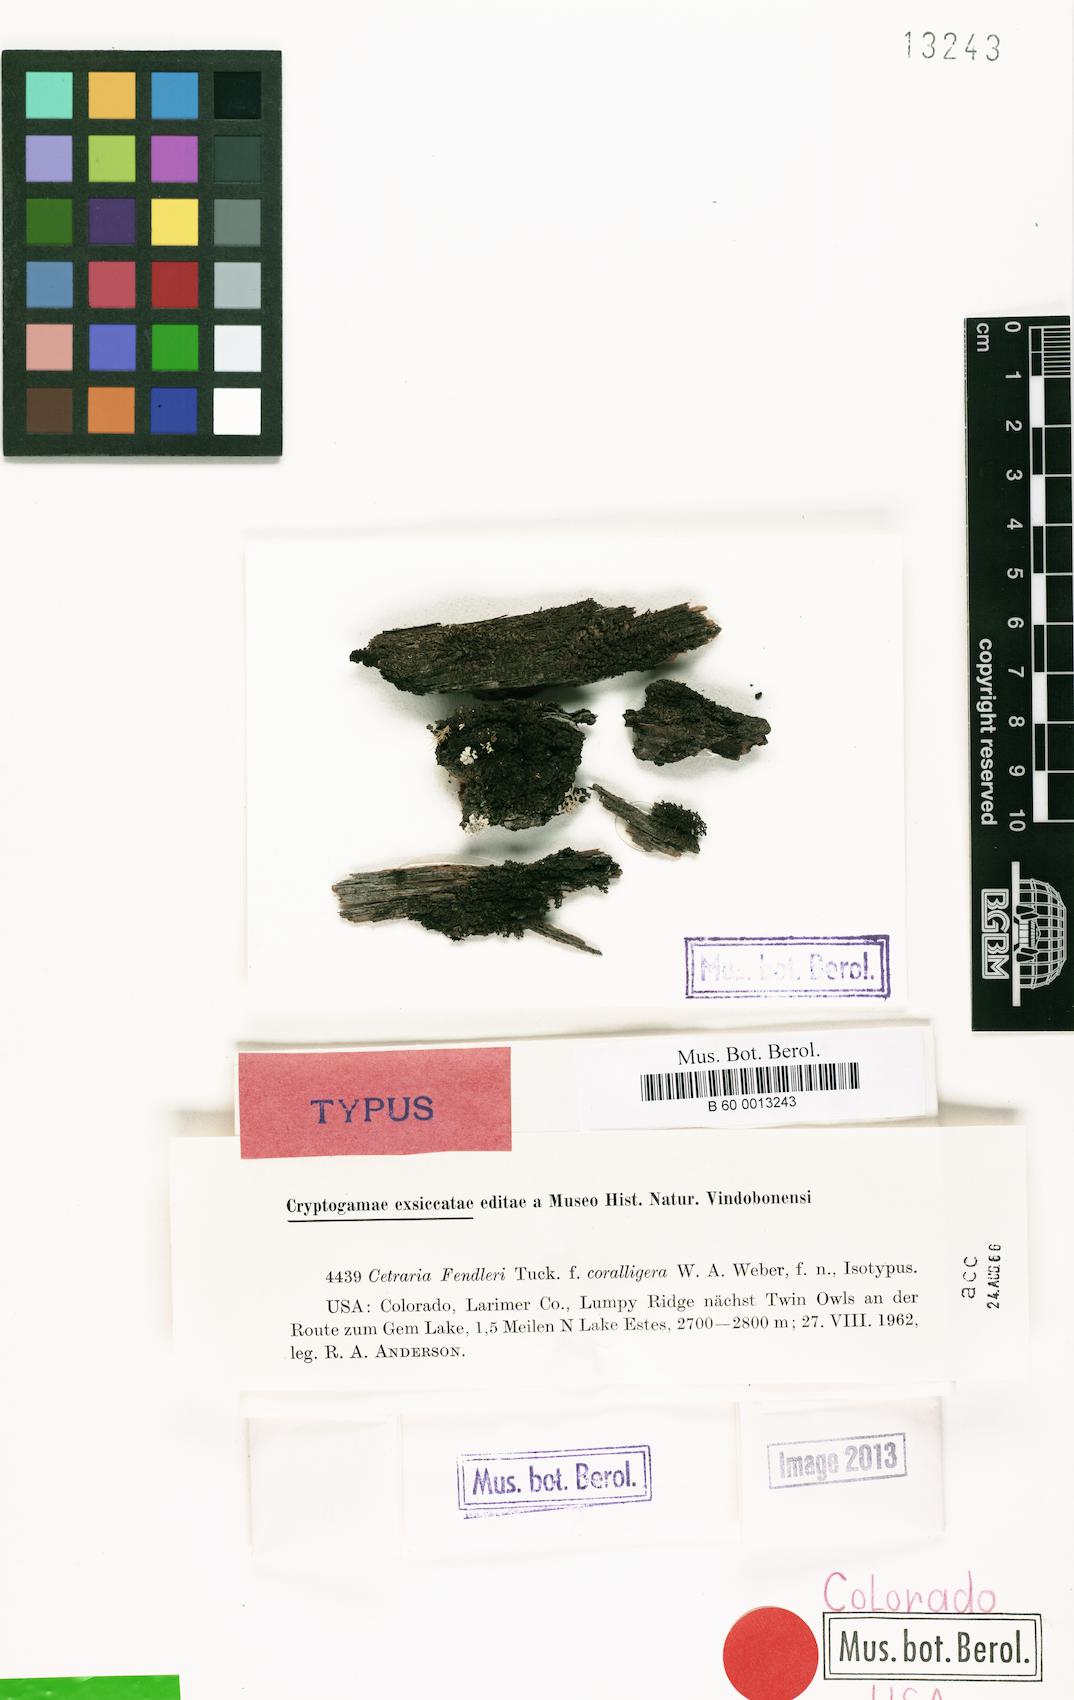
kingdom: Fungi
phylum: Ascomycota
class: Lecanoromycetes
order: Lecanorales
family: Parmeliaceae
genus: Nephromopsis
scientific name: Nephromopsis coralligera
